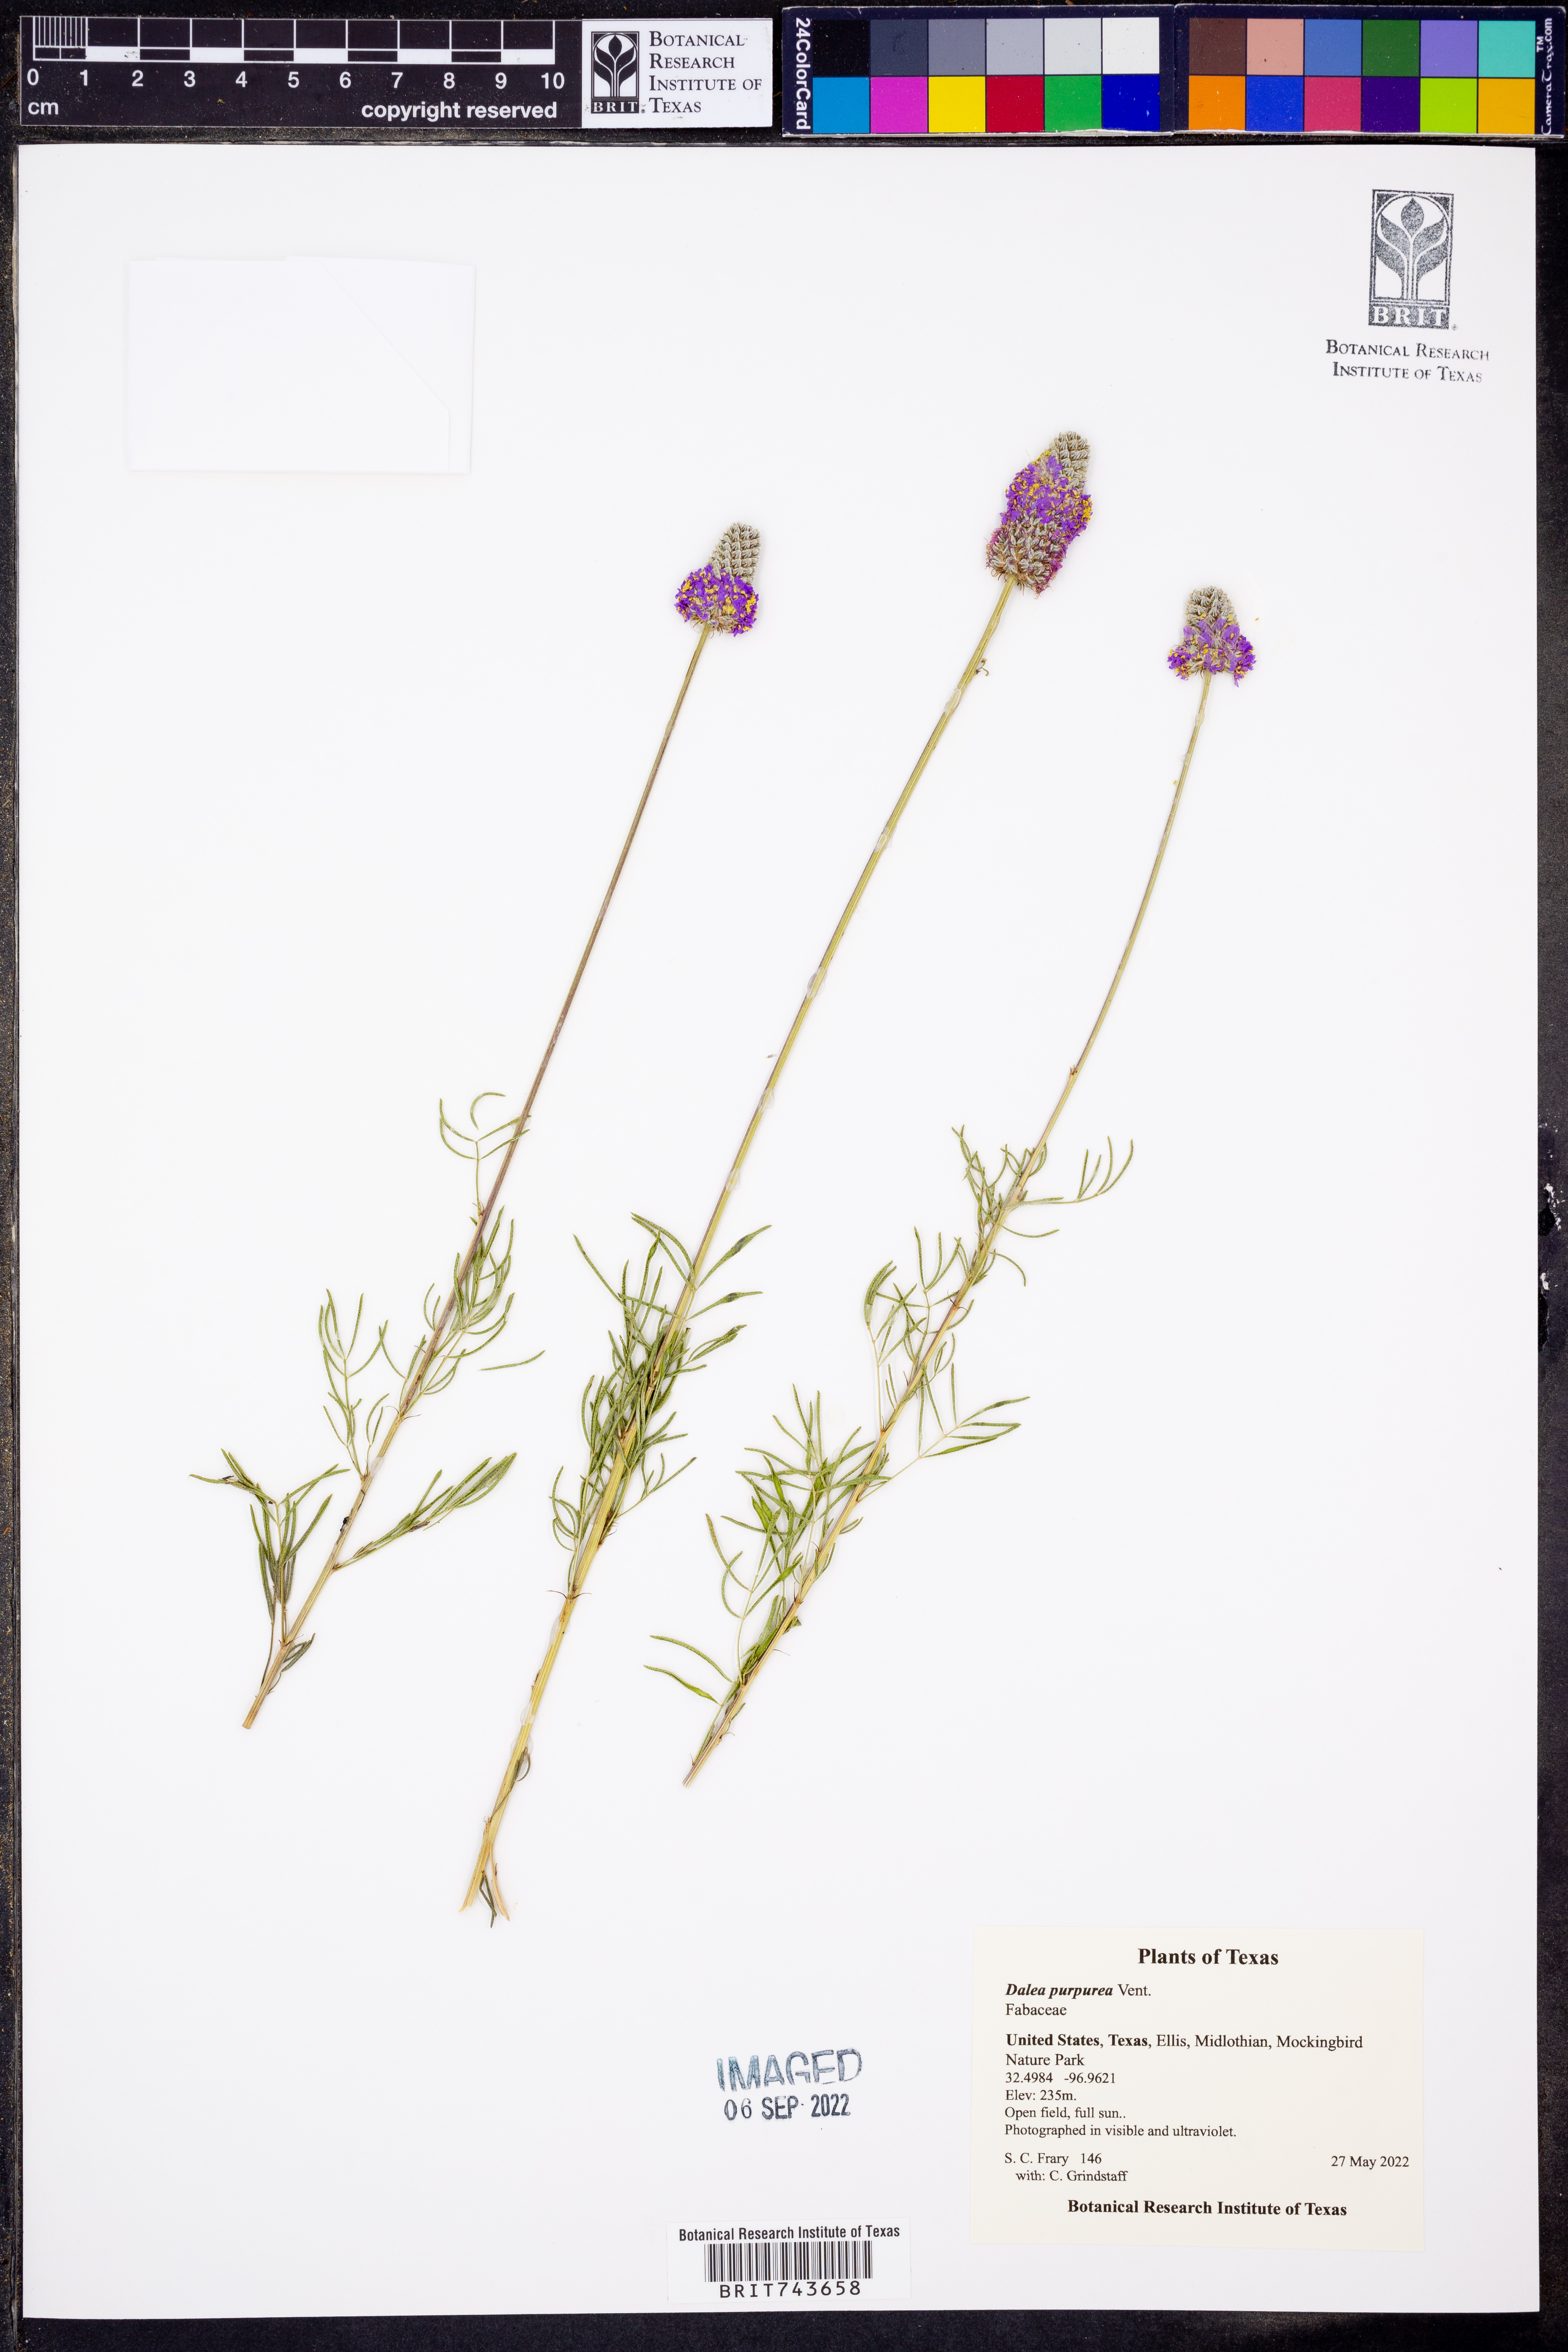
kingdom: Plantae
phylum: Tracheophyta
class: Magnoliopsida
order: Fabales
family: Fabaceae
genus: Dalea
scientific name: Dalea purpurea
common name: Purple prairie-clover
